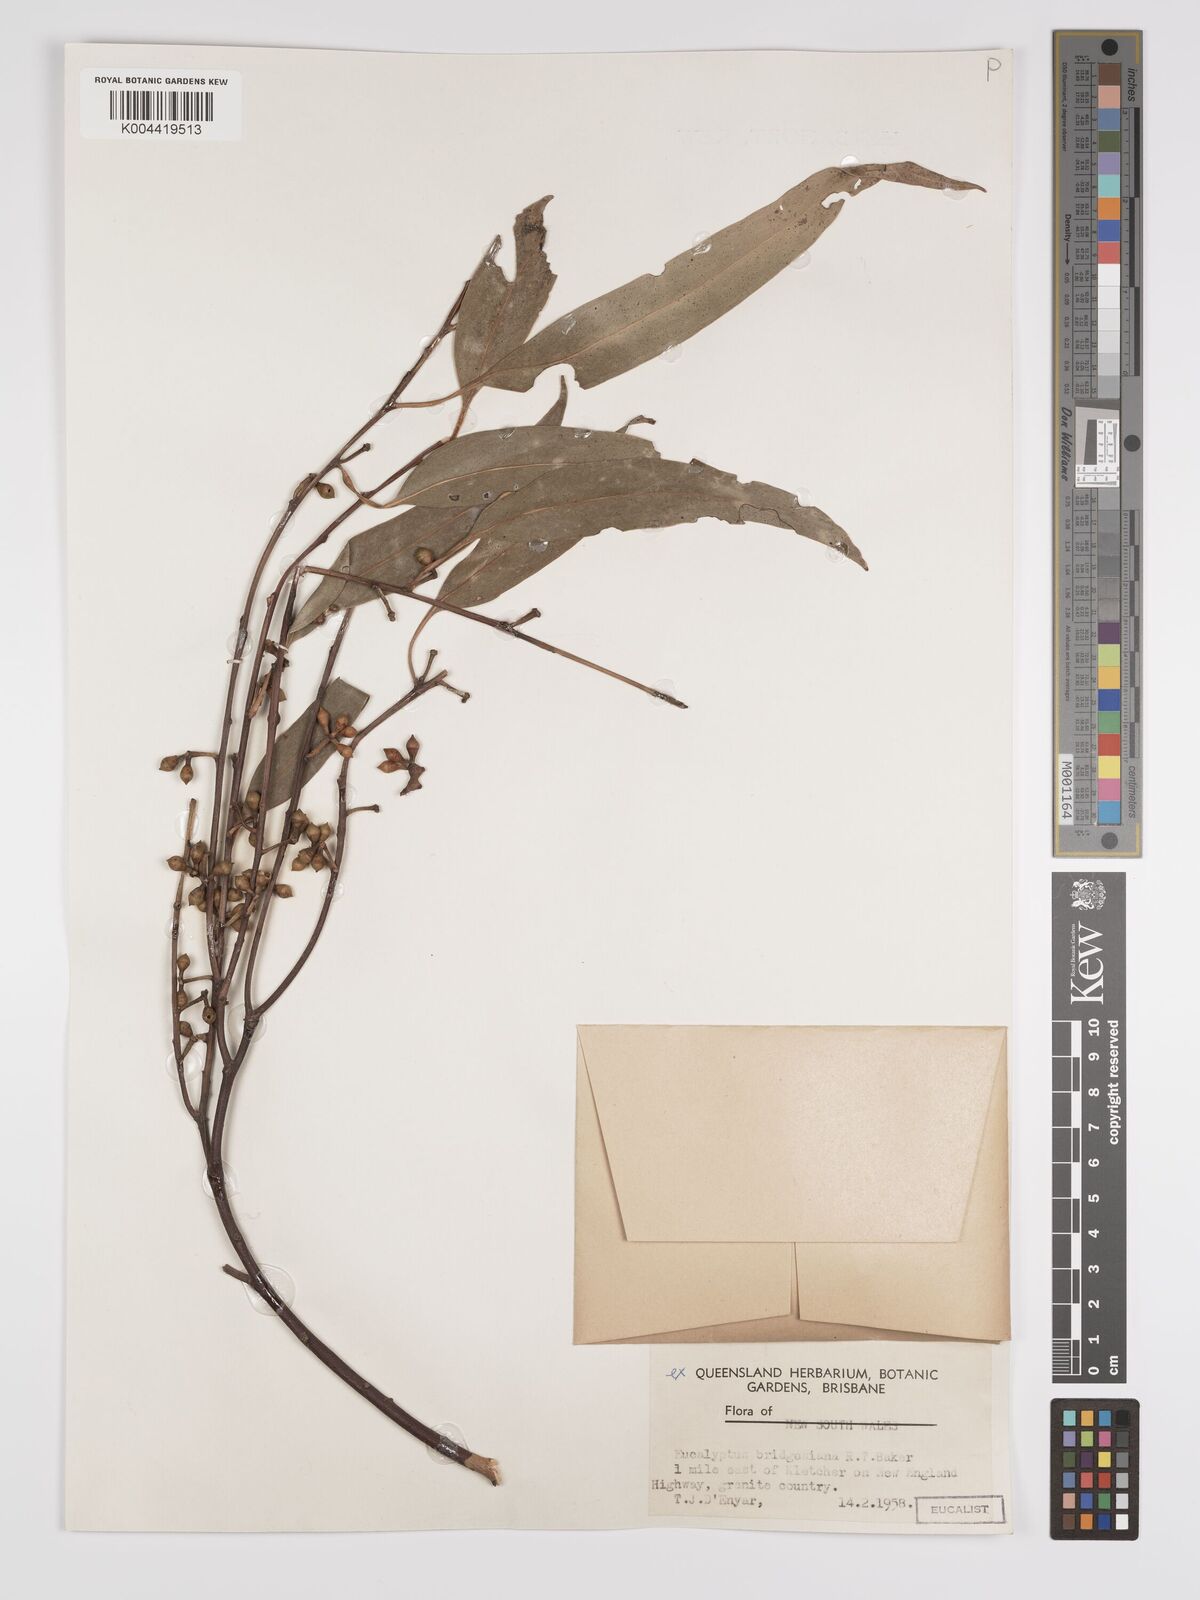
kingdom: Plantae
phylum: Tracheophyta
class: Magnoliopsida
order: Myrtales
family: Myrtaceae
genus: Eucalyptus
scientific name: Eucalyptus ovata
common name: Black-gum
